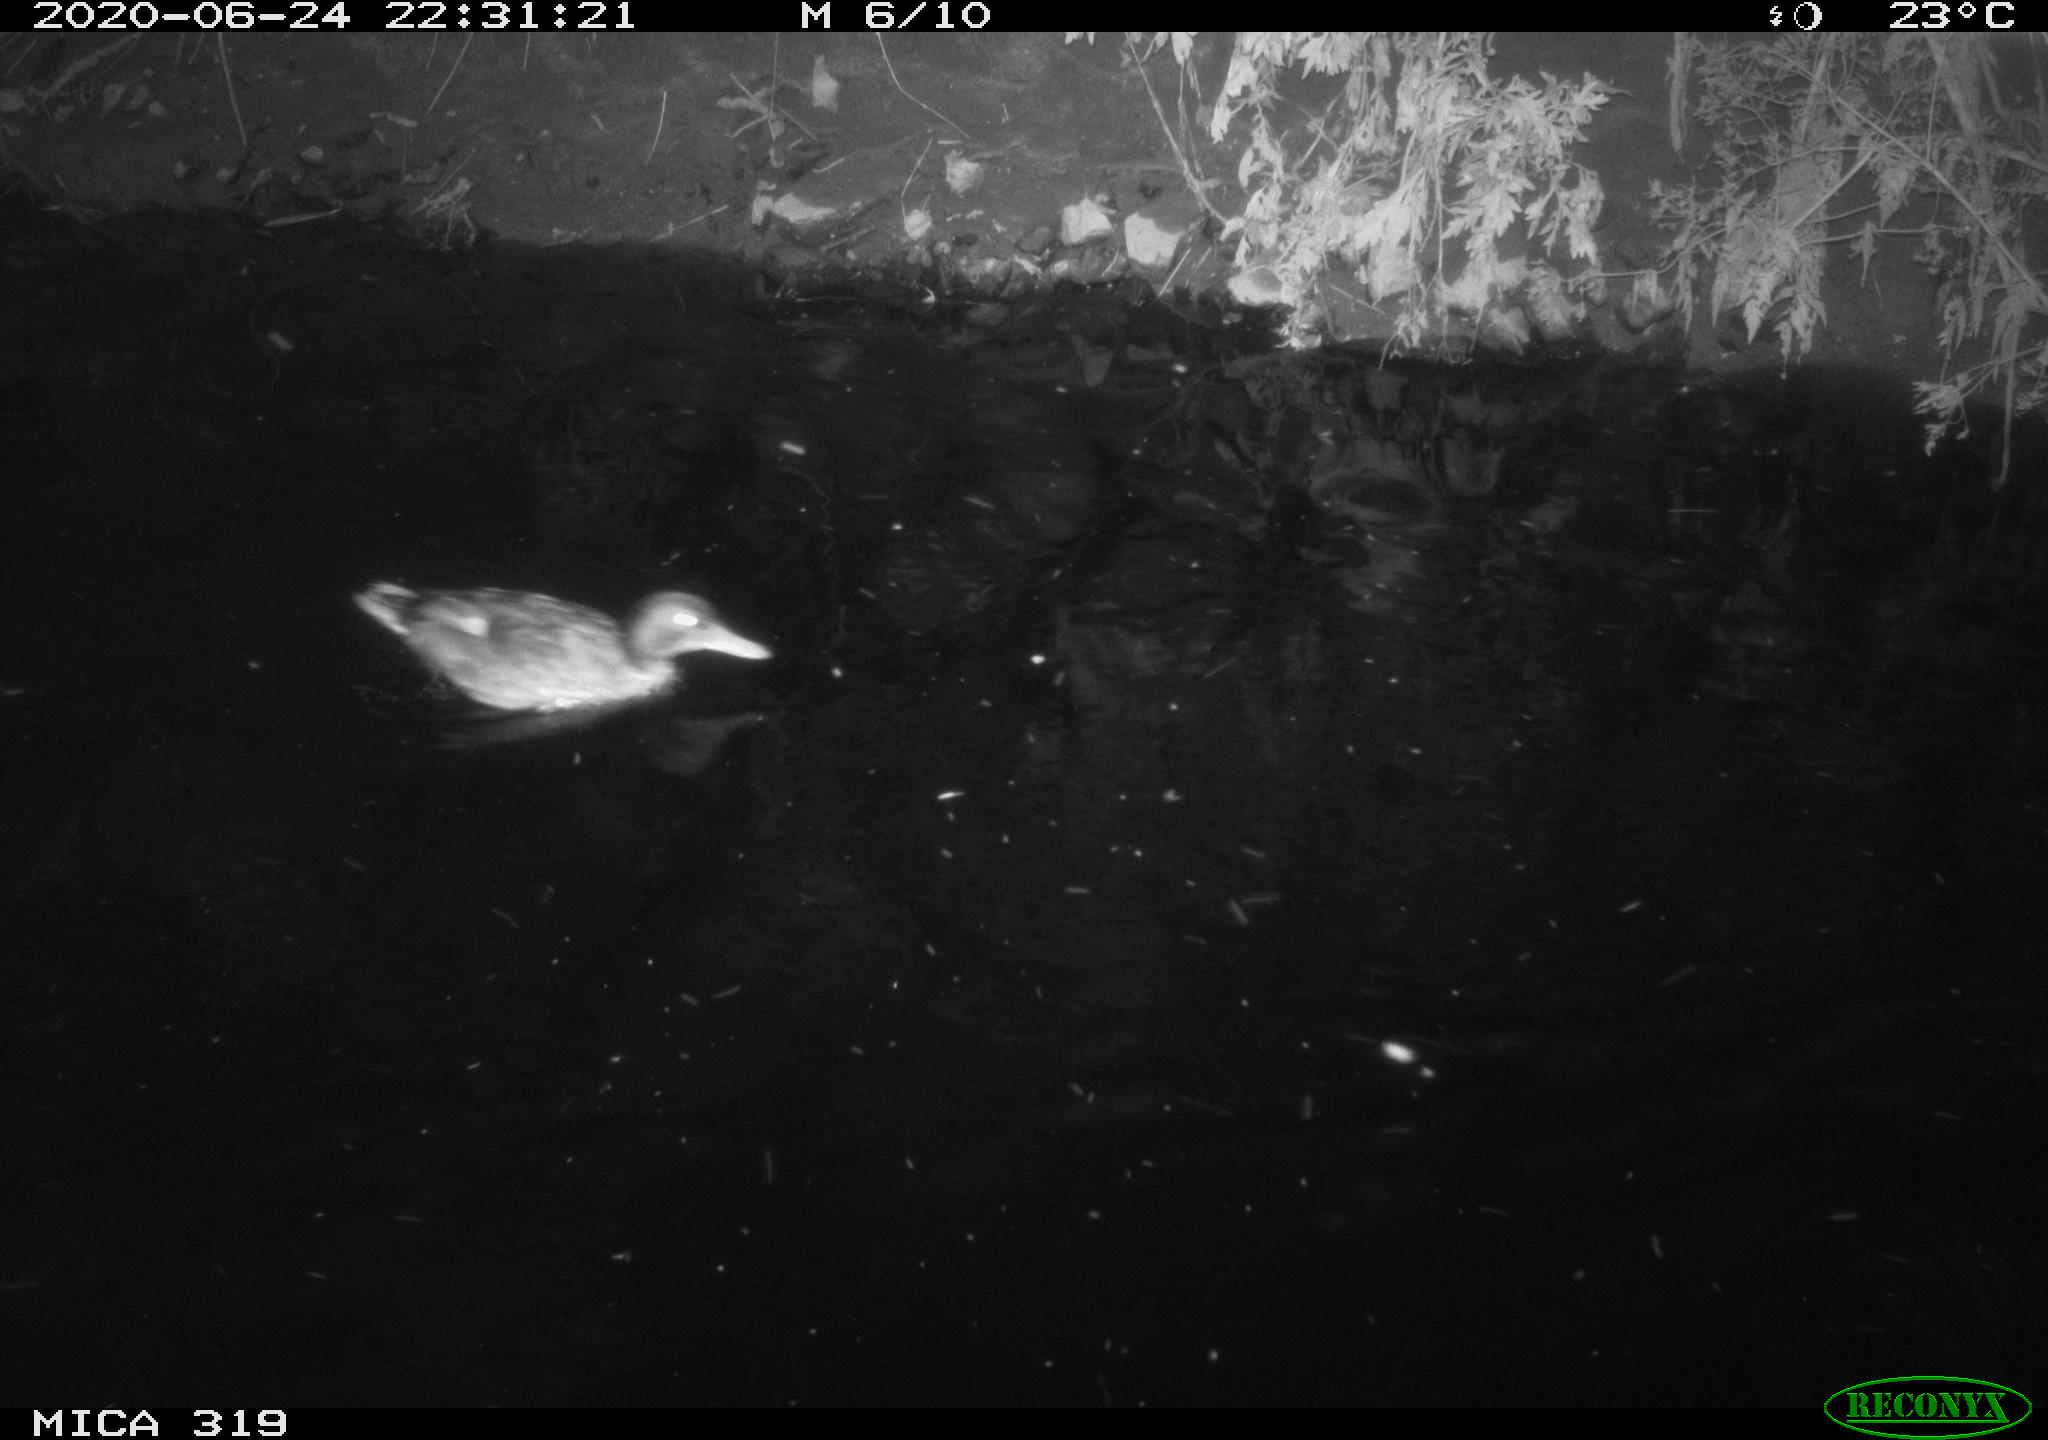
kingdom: Animalia
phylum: Chordata
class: Aves
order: Anseriformes
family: Anatidae
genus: Anas
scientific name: Anas platyrhynchos
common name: Mallard
